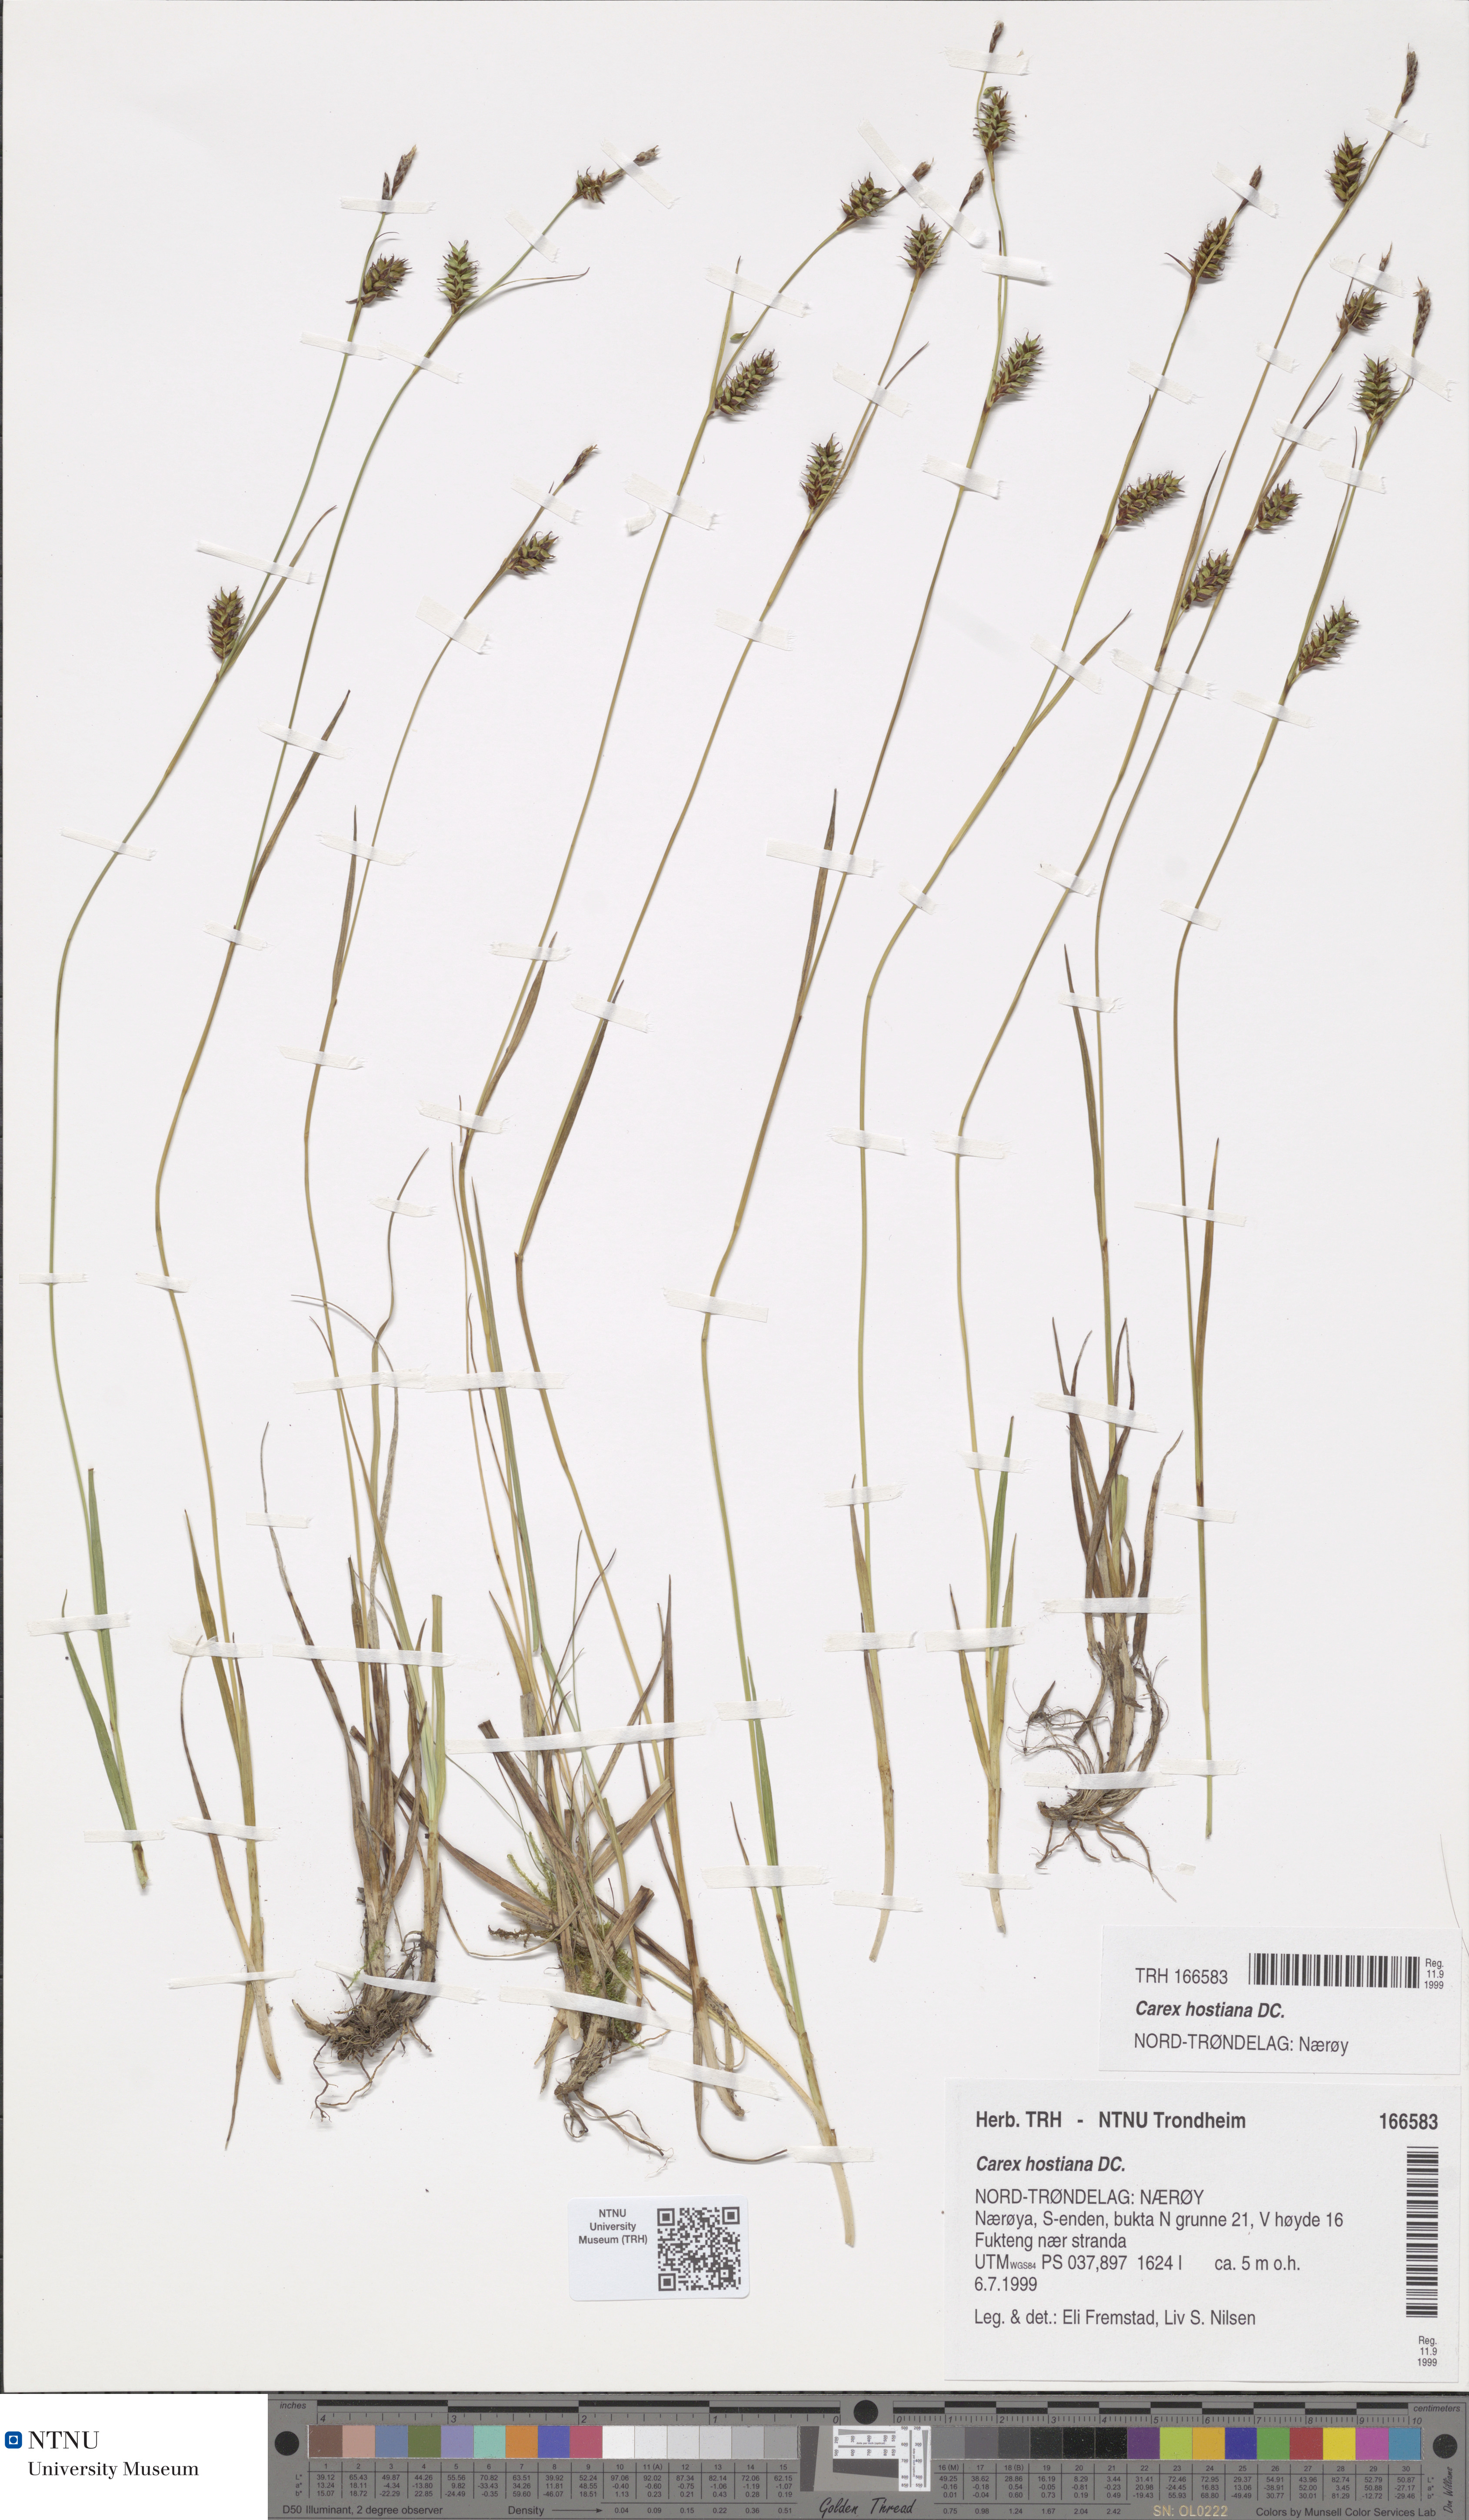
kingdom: Plantae
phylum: Tracheophyta
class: Liliopsida
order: Poales
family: Cyperaceae
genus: Carex
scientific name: Carex hostiana
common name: Tawny sedge
